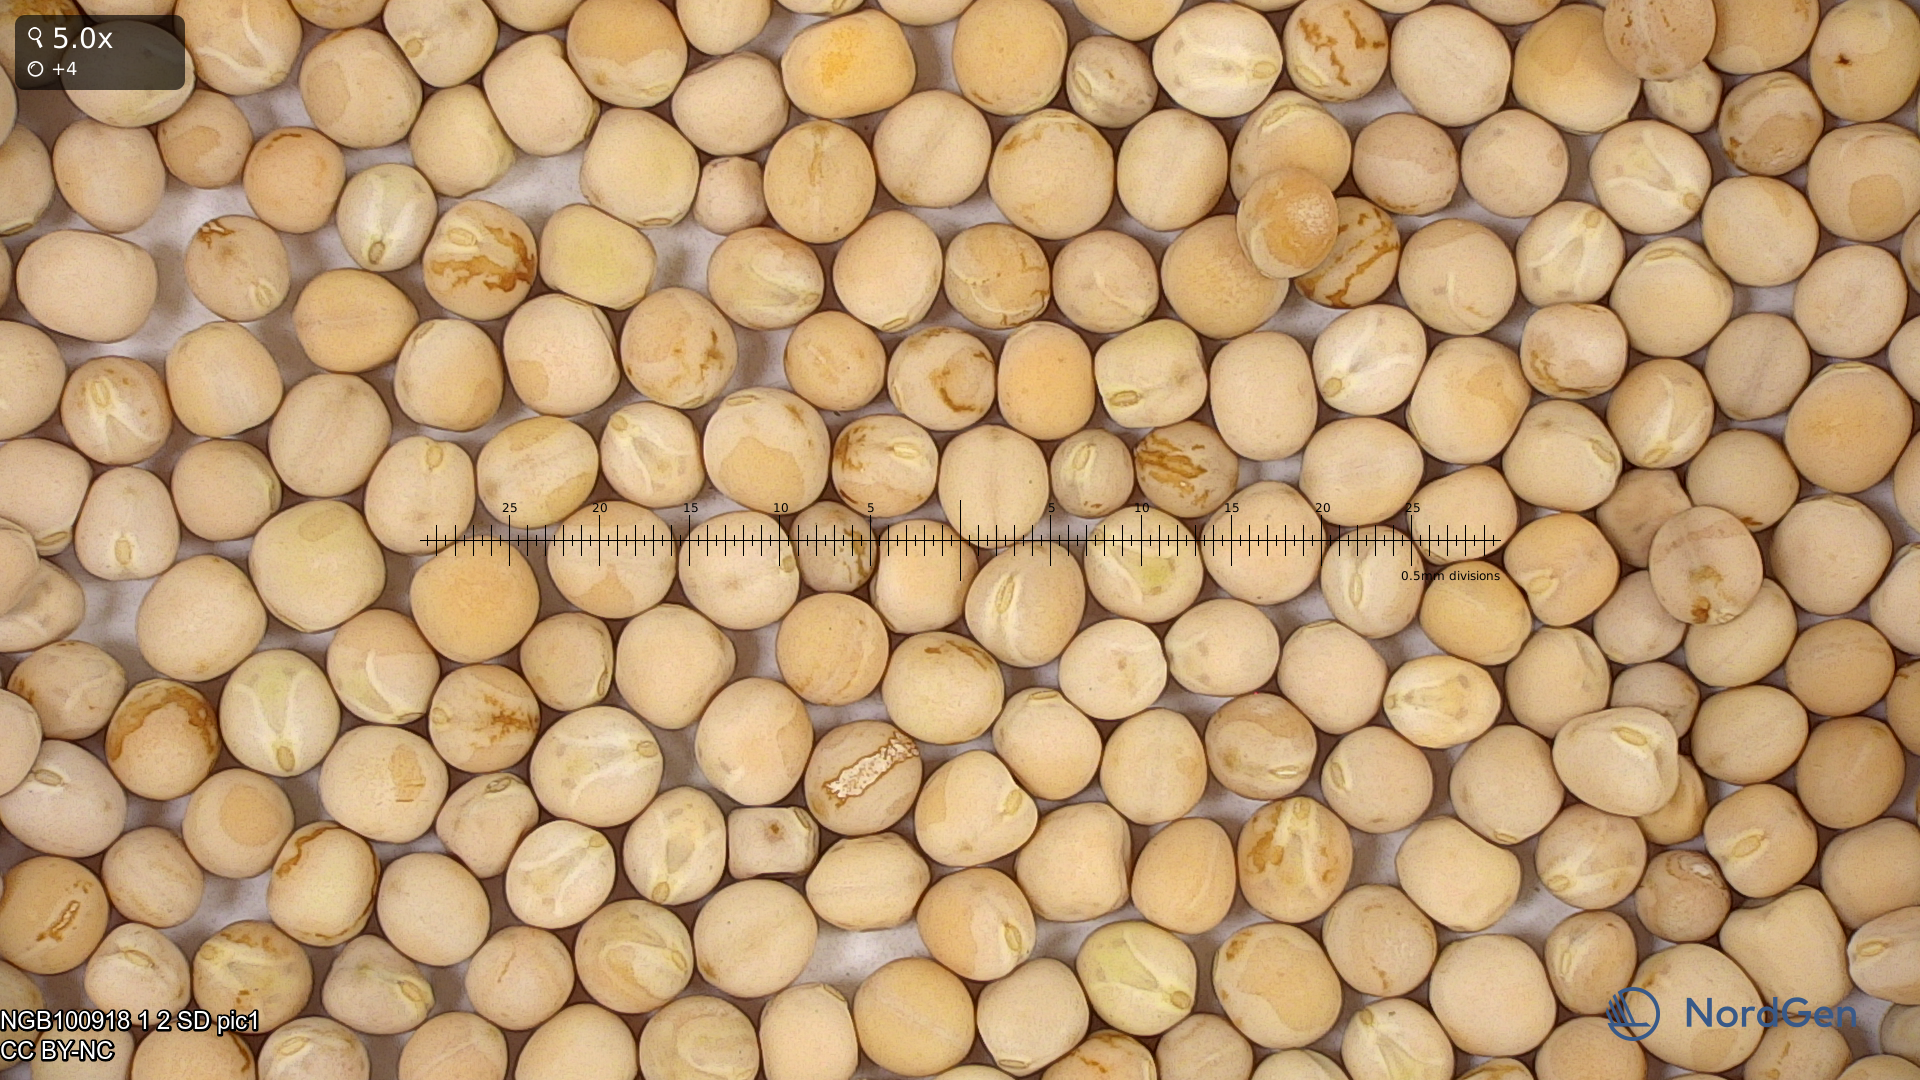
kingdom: Plantae
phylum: Tracheophyta
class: Magnoliopsida
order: Fabales
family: Fabaceae
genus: Lathyrus
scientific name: Lathyrus oleraceus
